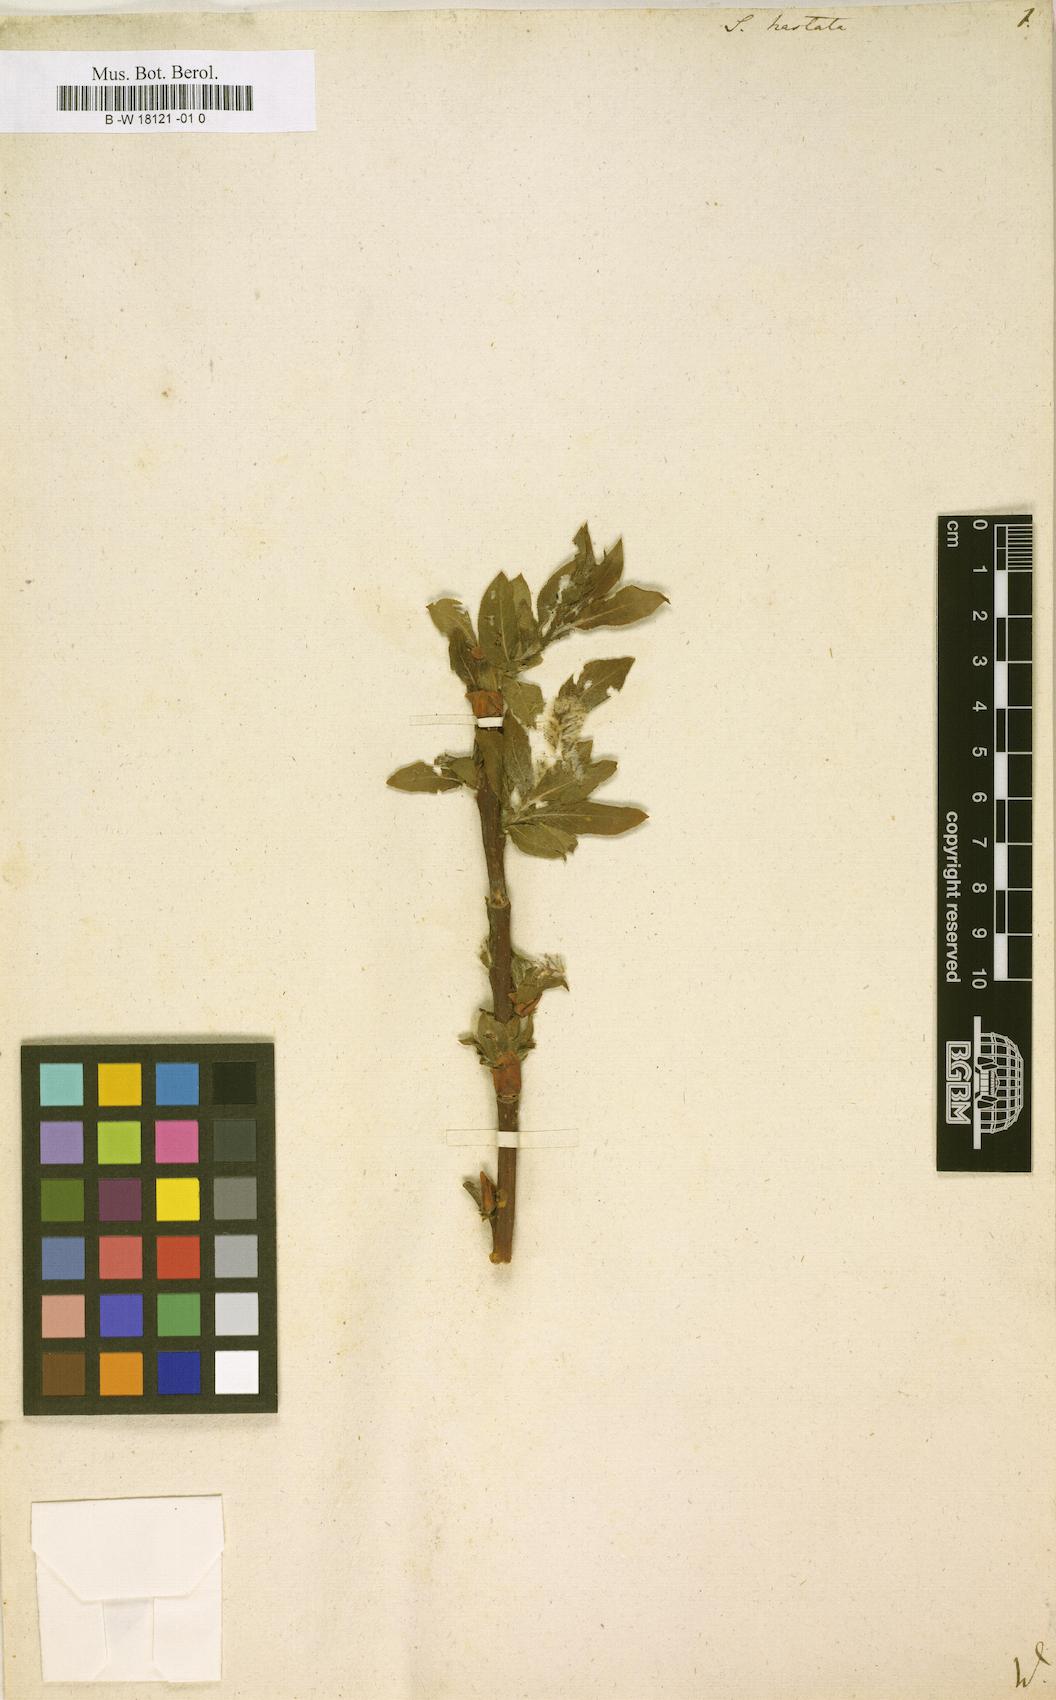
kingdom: Plantae
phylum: Tracheophyta
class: Magnoliopsida
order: Malpighiales
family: Salicaceae
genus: Salix
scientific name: Salix hastata
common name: Halberd willow
